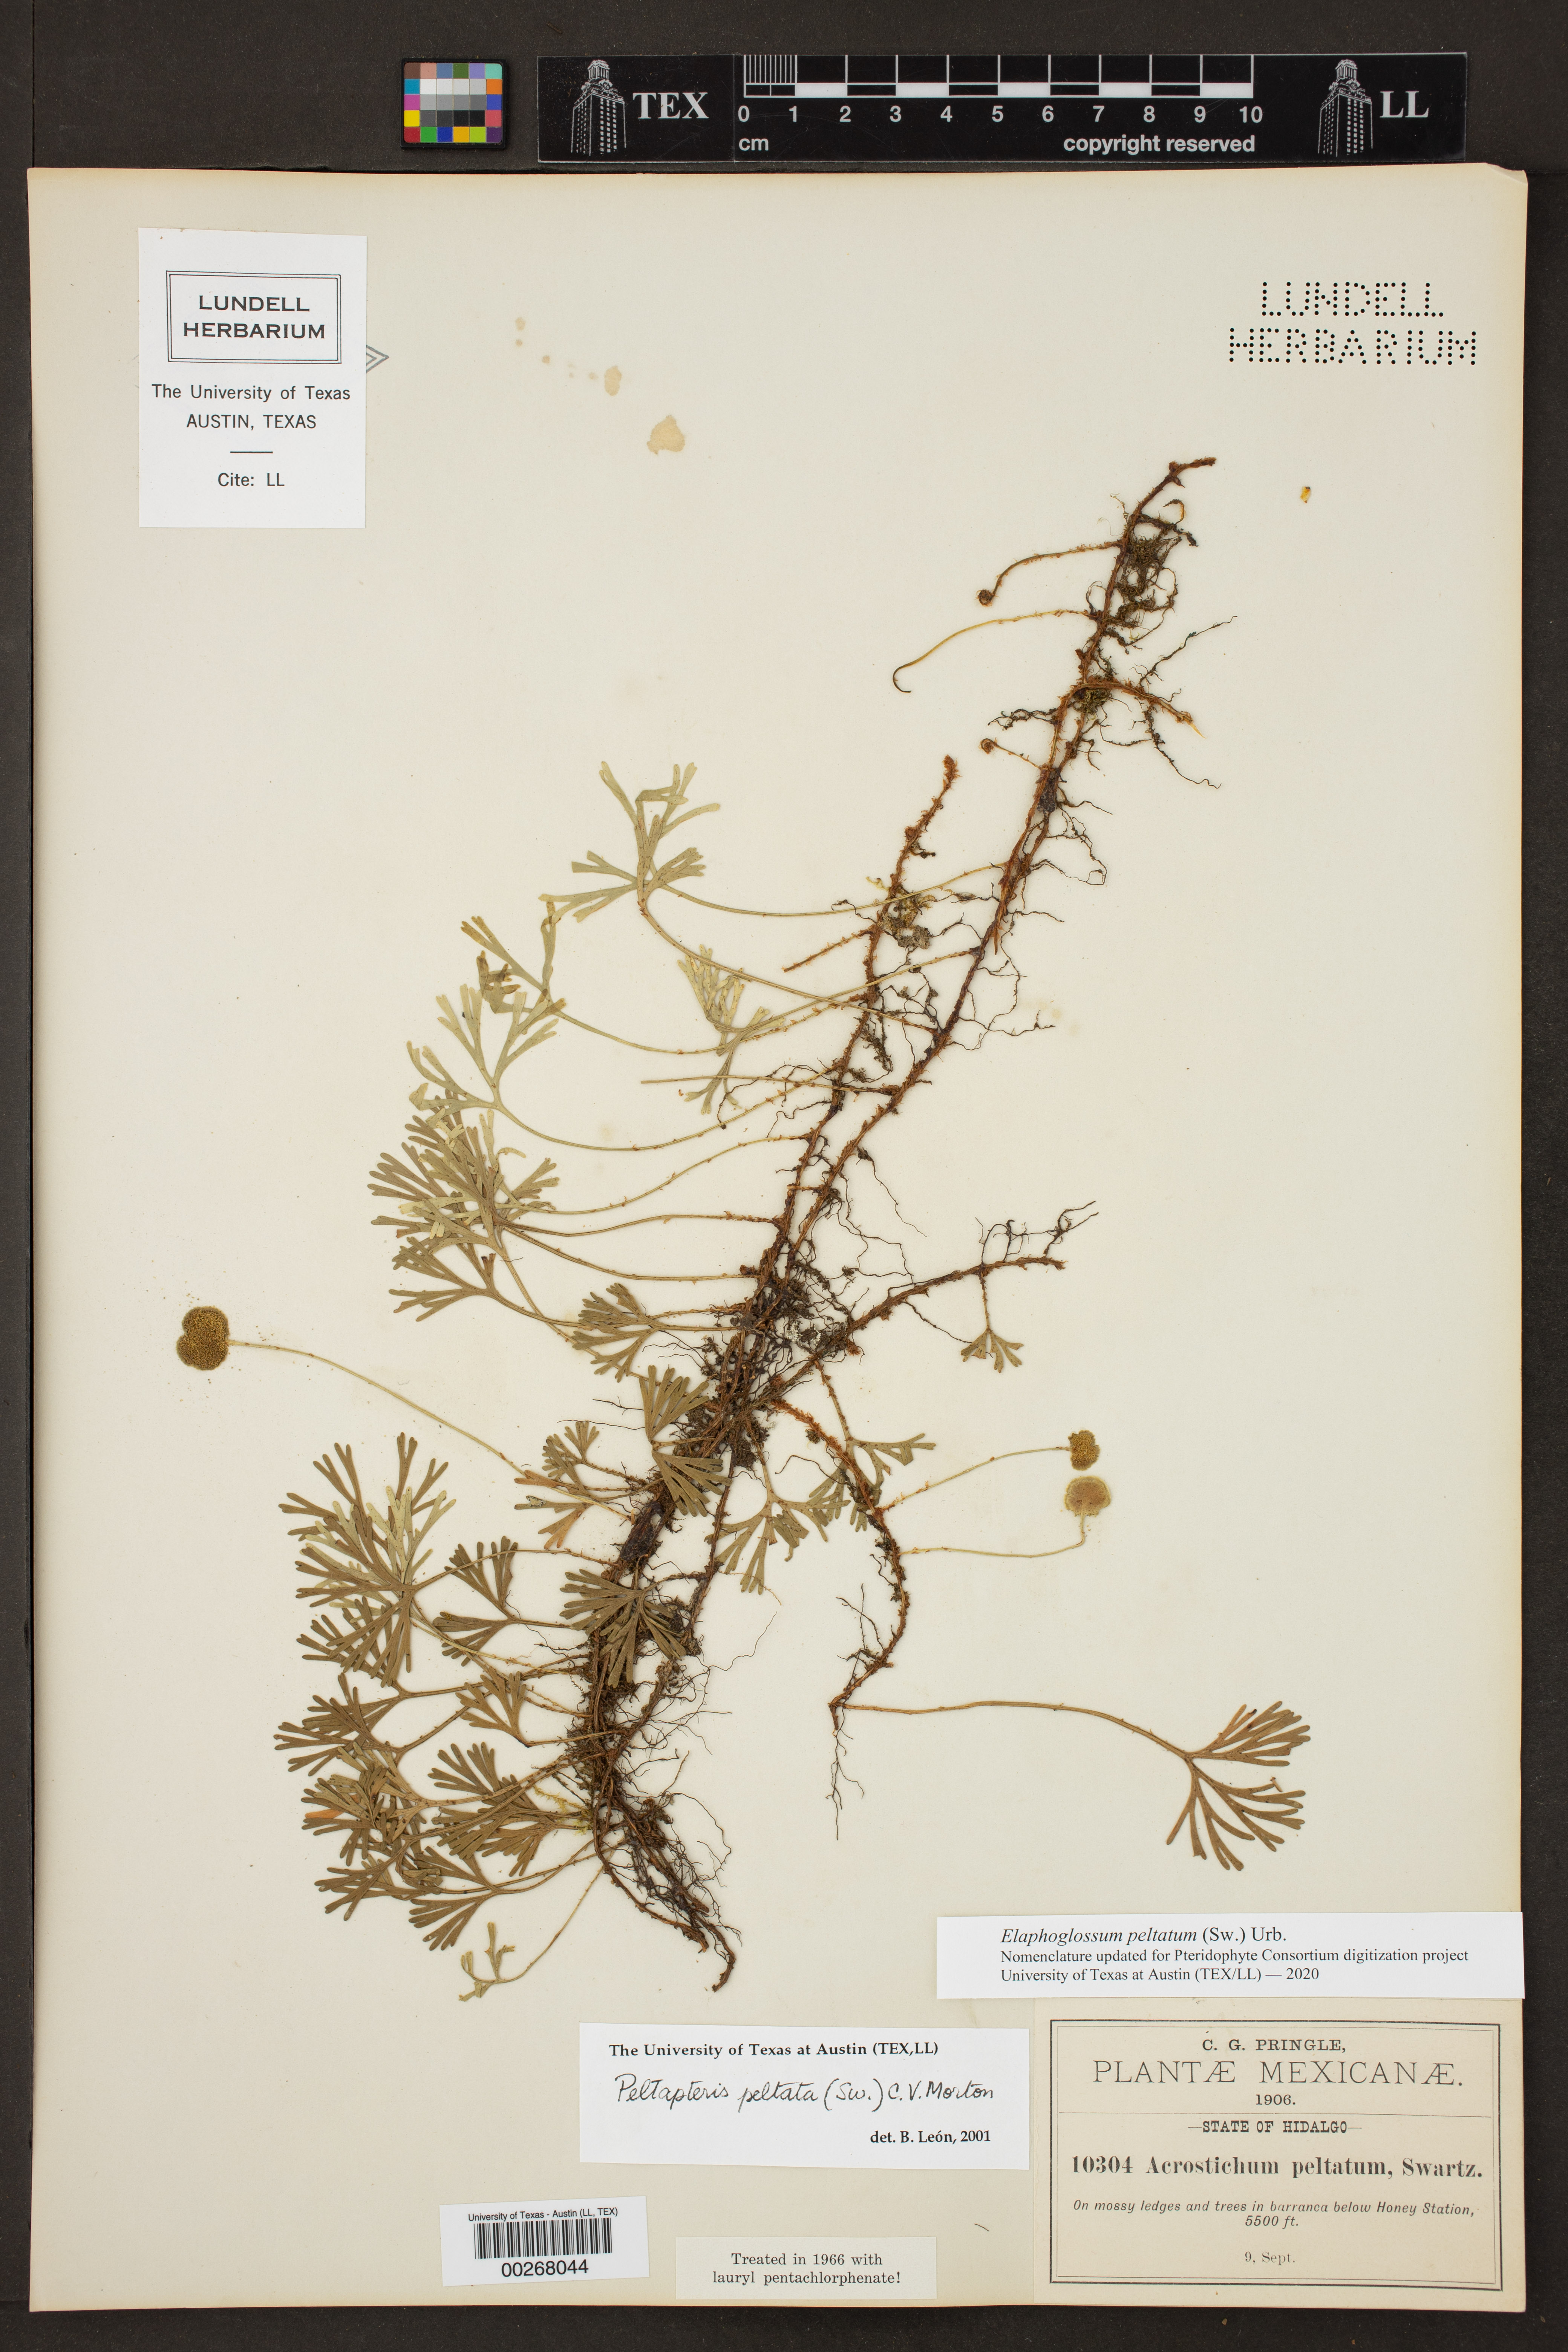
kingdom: Plantae
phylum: Tracheophyta
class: Polypodiopsida
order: Polypodiales
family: Dryopteridaceae
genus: Elaphoglossum
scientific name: Elaphoglossum peltatum
